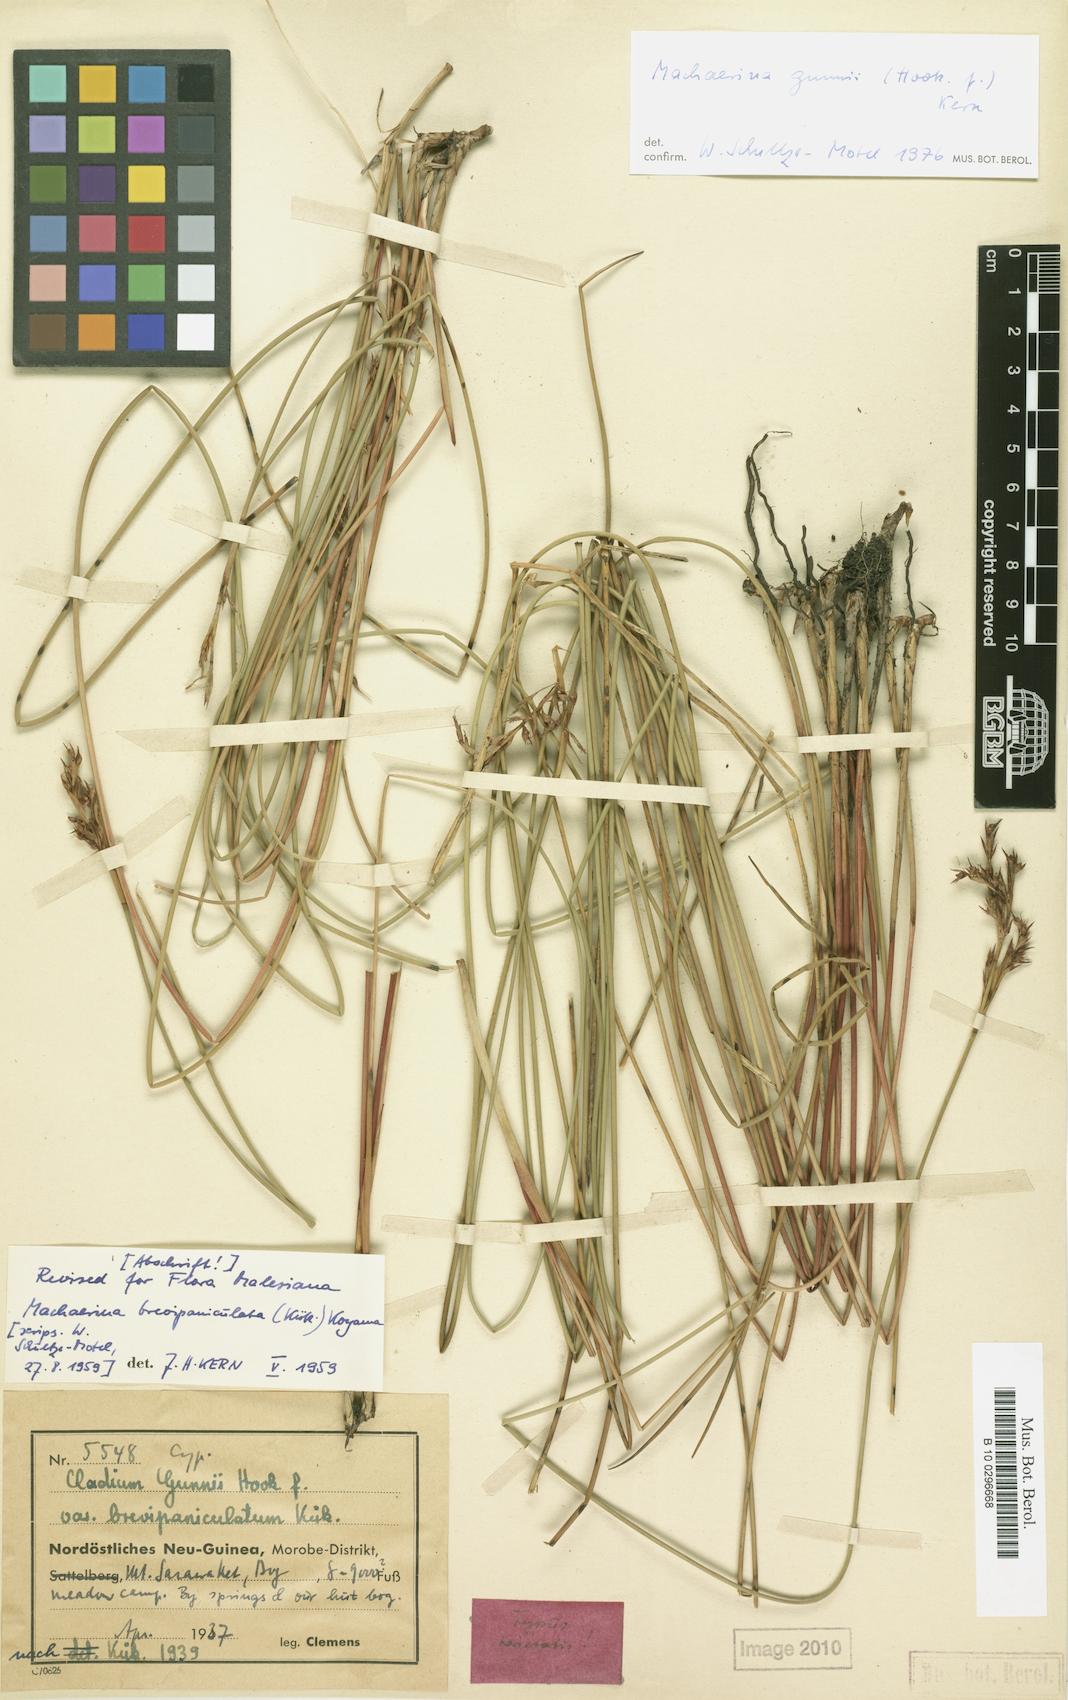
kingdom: Plantae
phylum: Tracheophyta
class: Liliopsida
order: Poales
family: Cyperaceae
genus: Machaerina
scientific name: Machaerina gunnii
